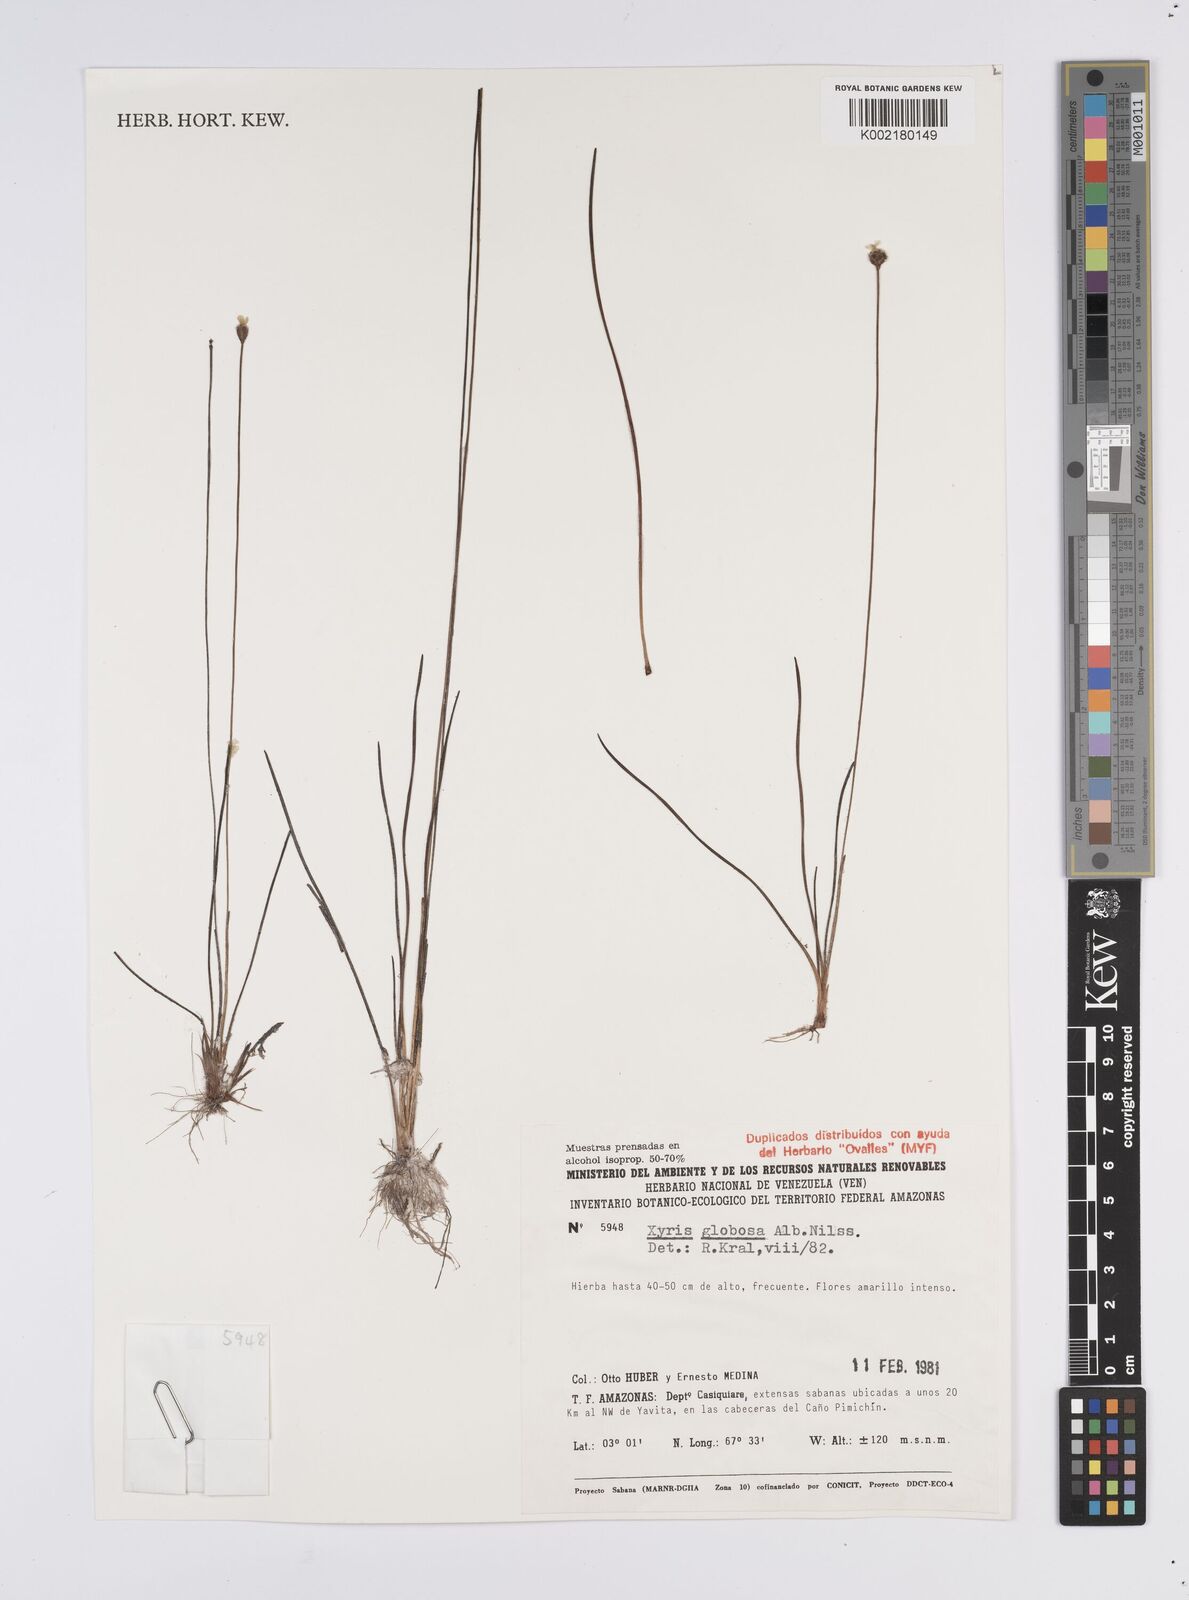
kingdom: Plantae
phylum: Tracheophyta
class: Liliopsida
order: Poales
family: Xyridaceae
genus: Xyris
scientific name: Xyris globosa
